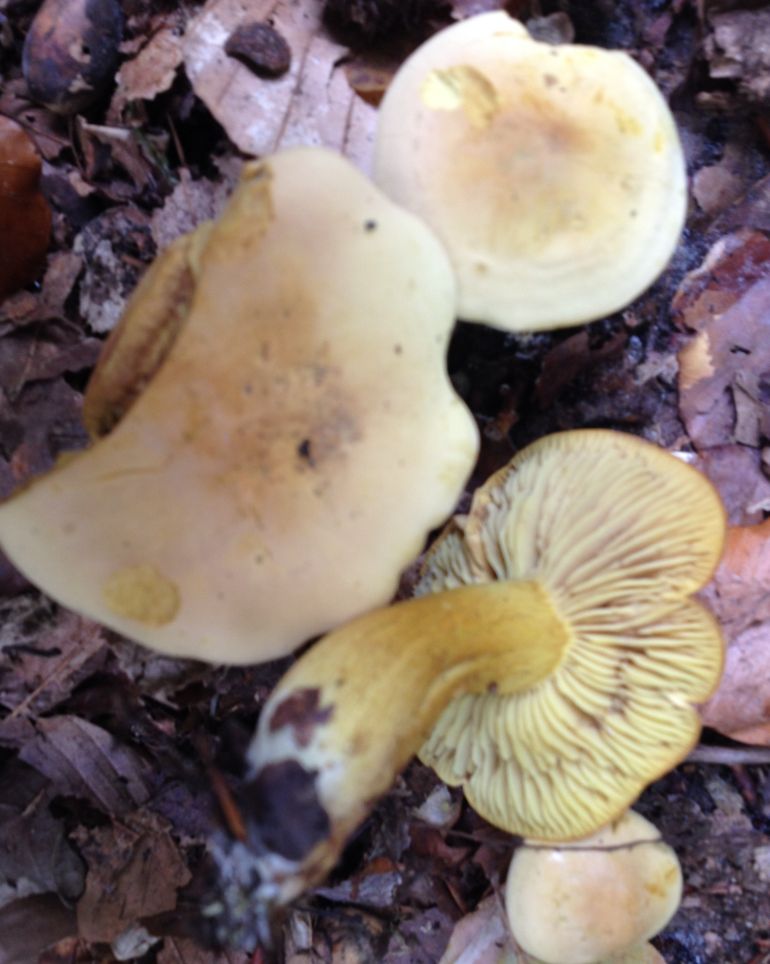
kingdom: Fungi
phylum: Basidiomycota
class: Agaricomycetes
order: Agaricales
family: Tricholomataceae
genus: Tricholoma
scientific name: Tricholoma sulphureum
